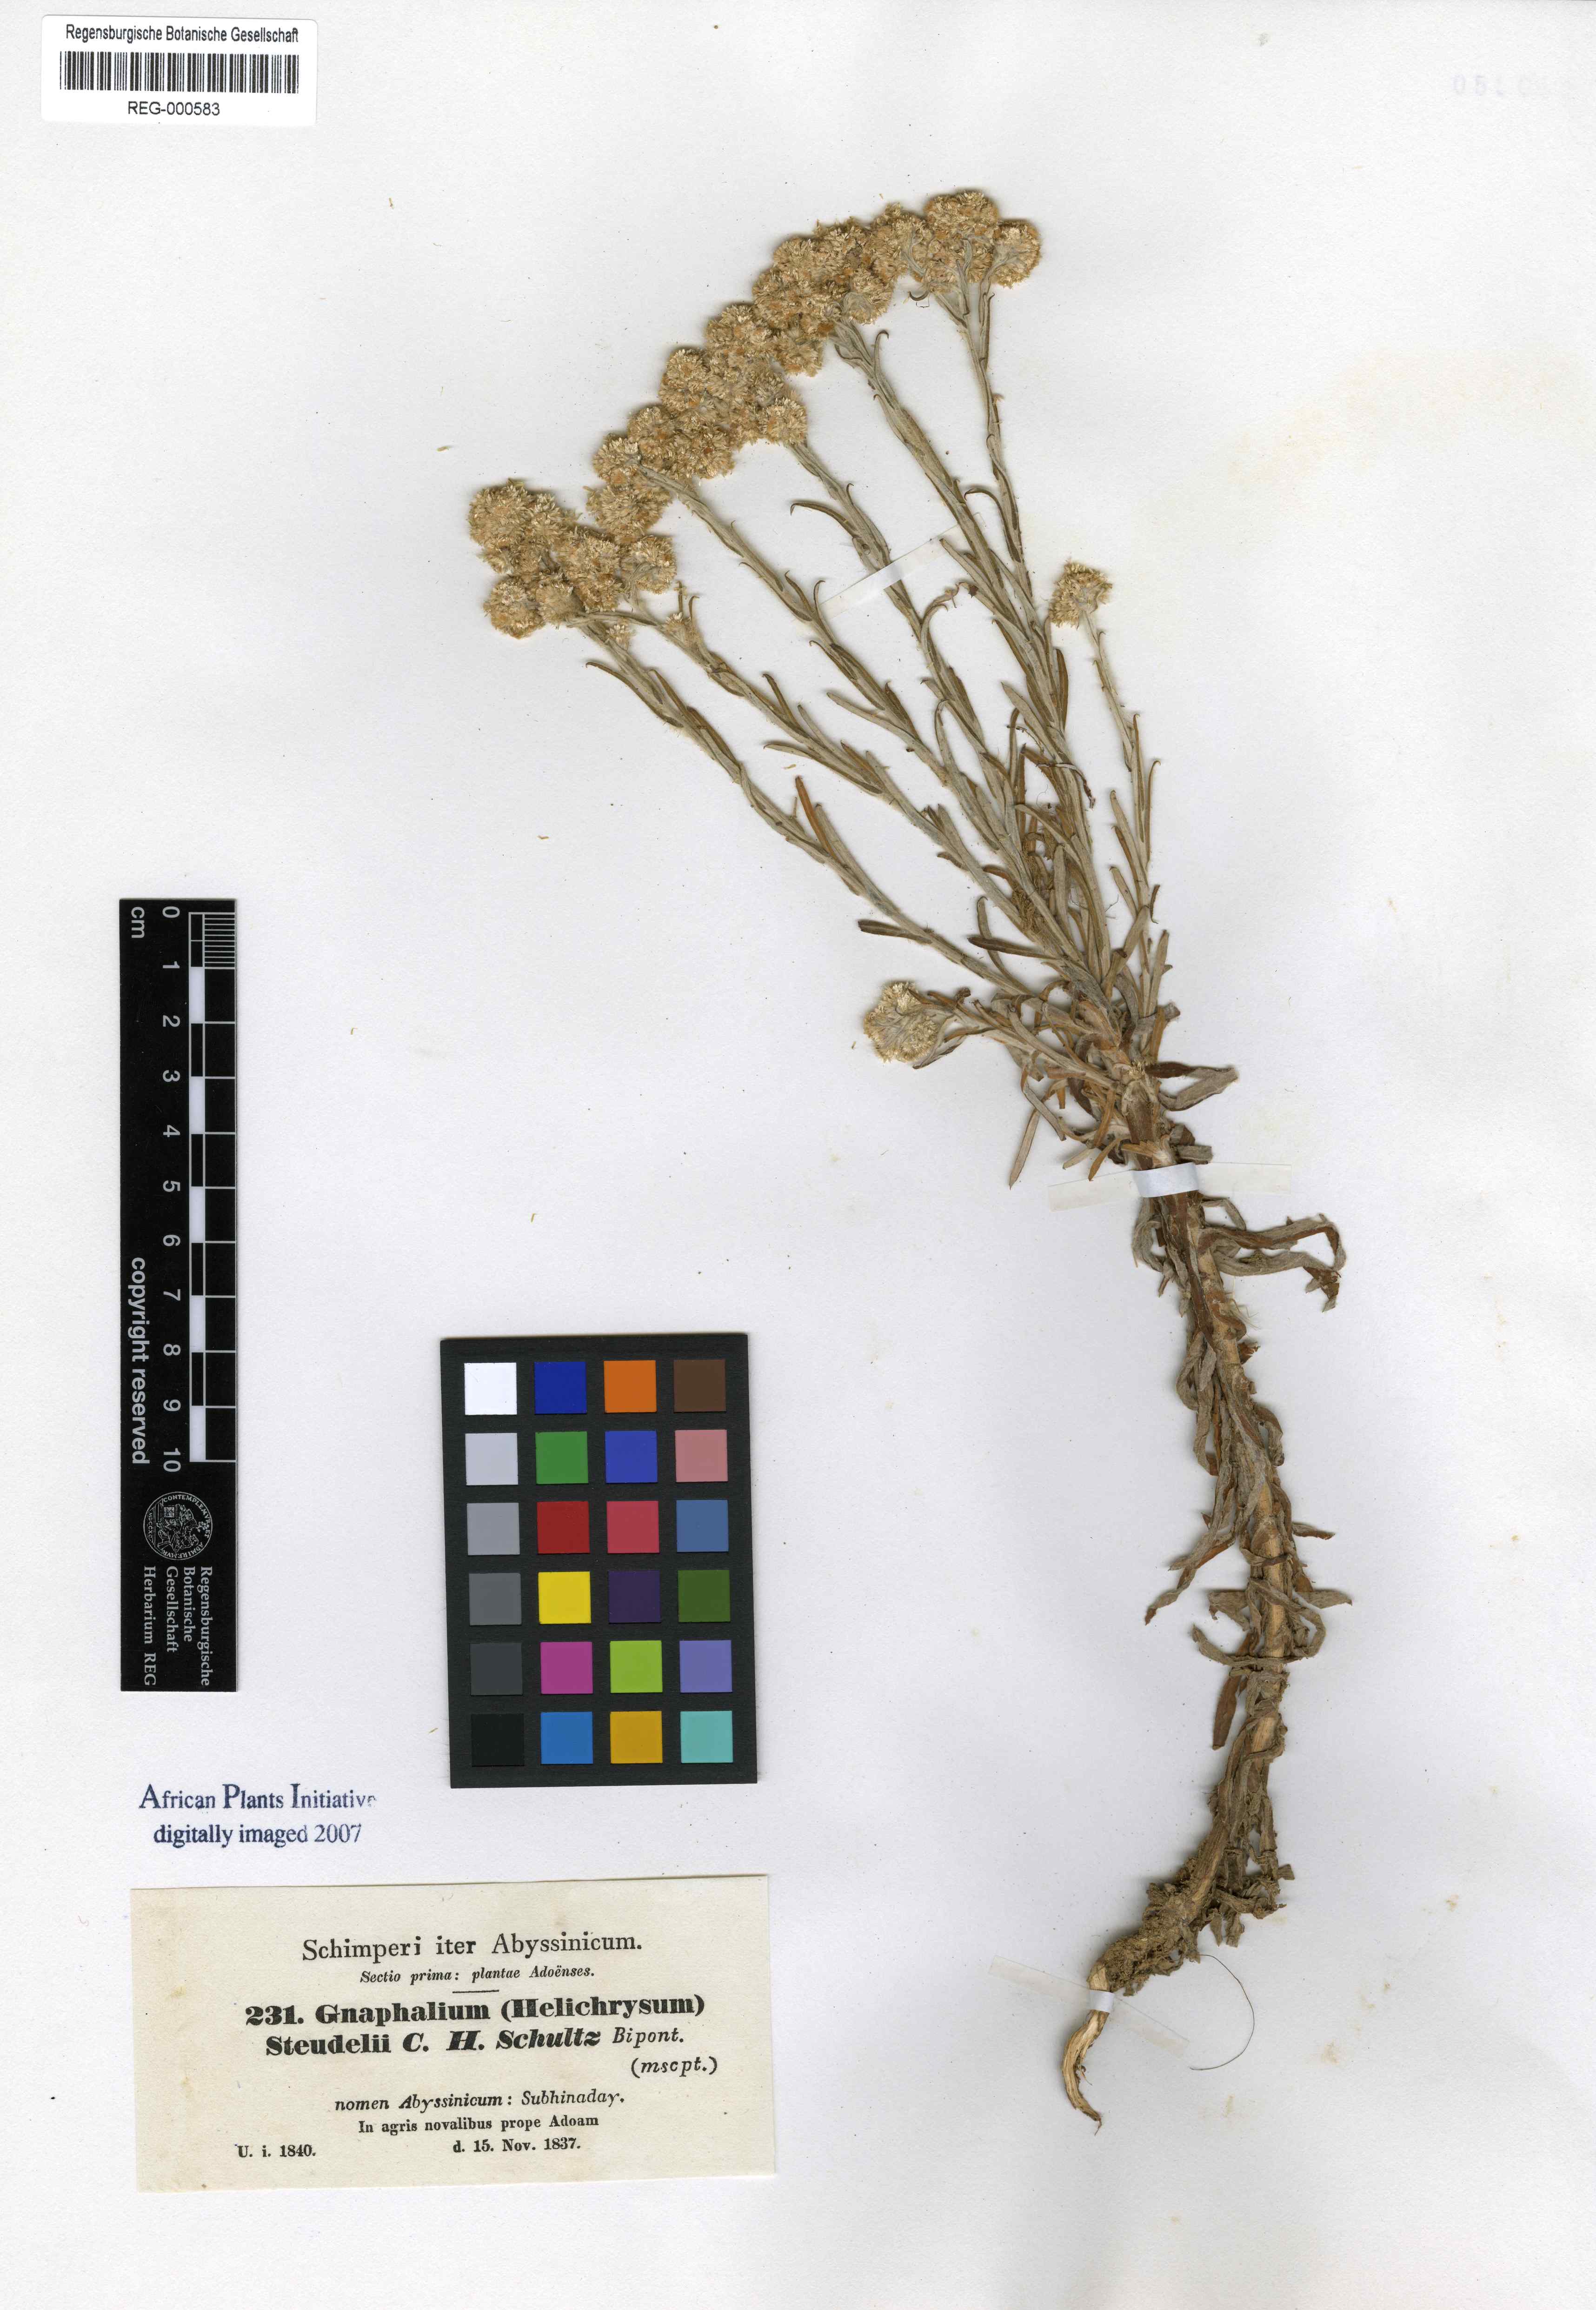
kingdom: Plantae
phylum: Tracheophyta
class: Magnoliopsida
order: Asterales
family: Asteraceae
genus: Pseudognaphalium
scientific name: Pseudognaphalium oligandrum
